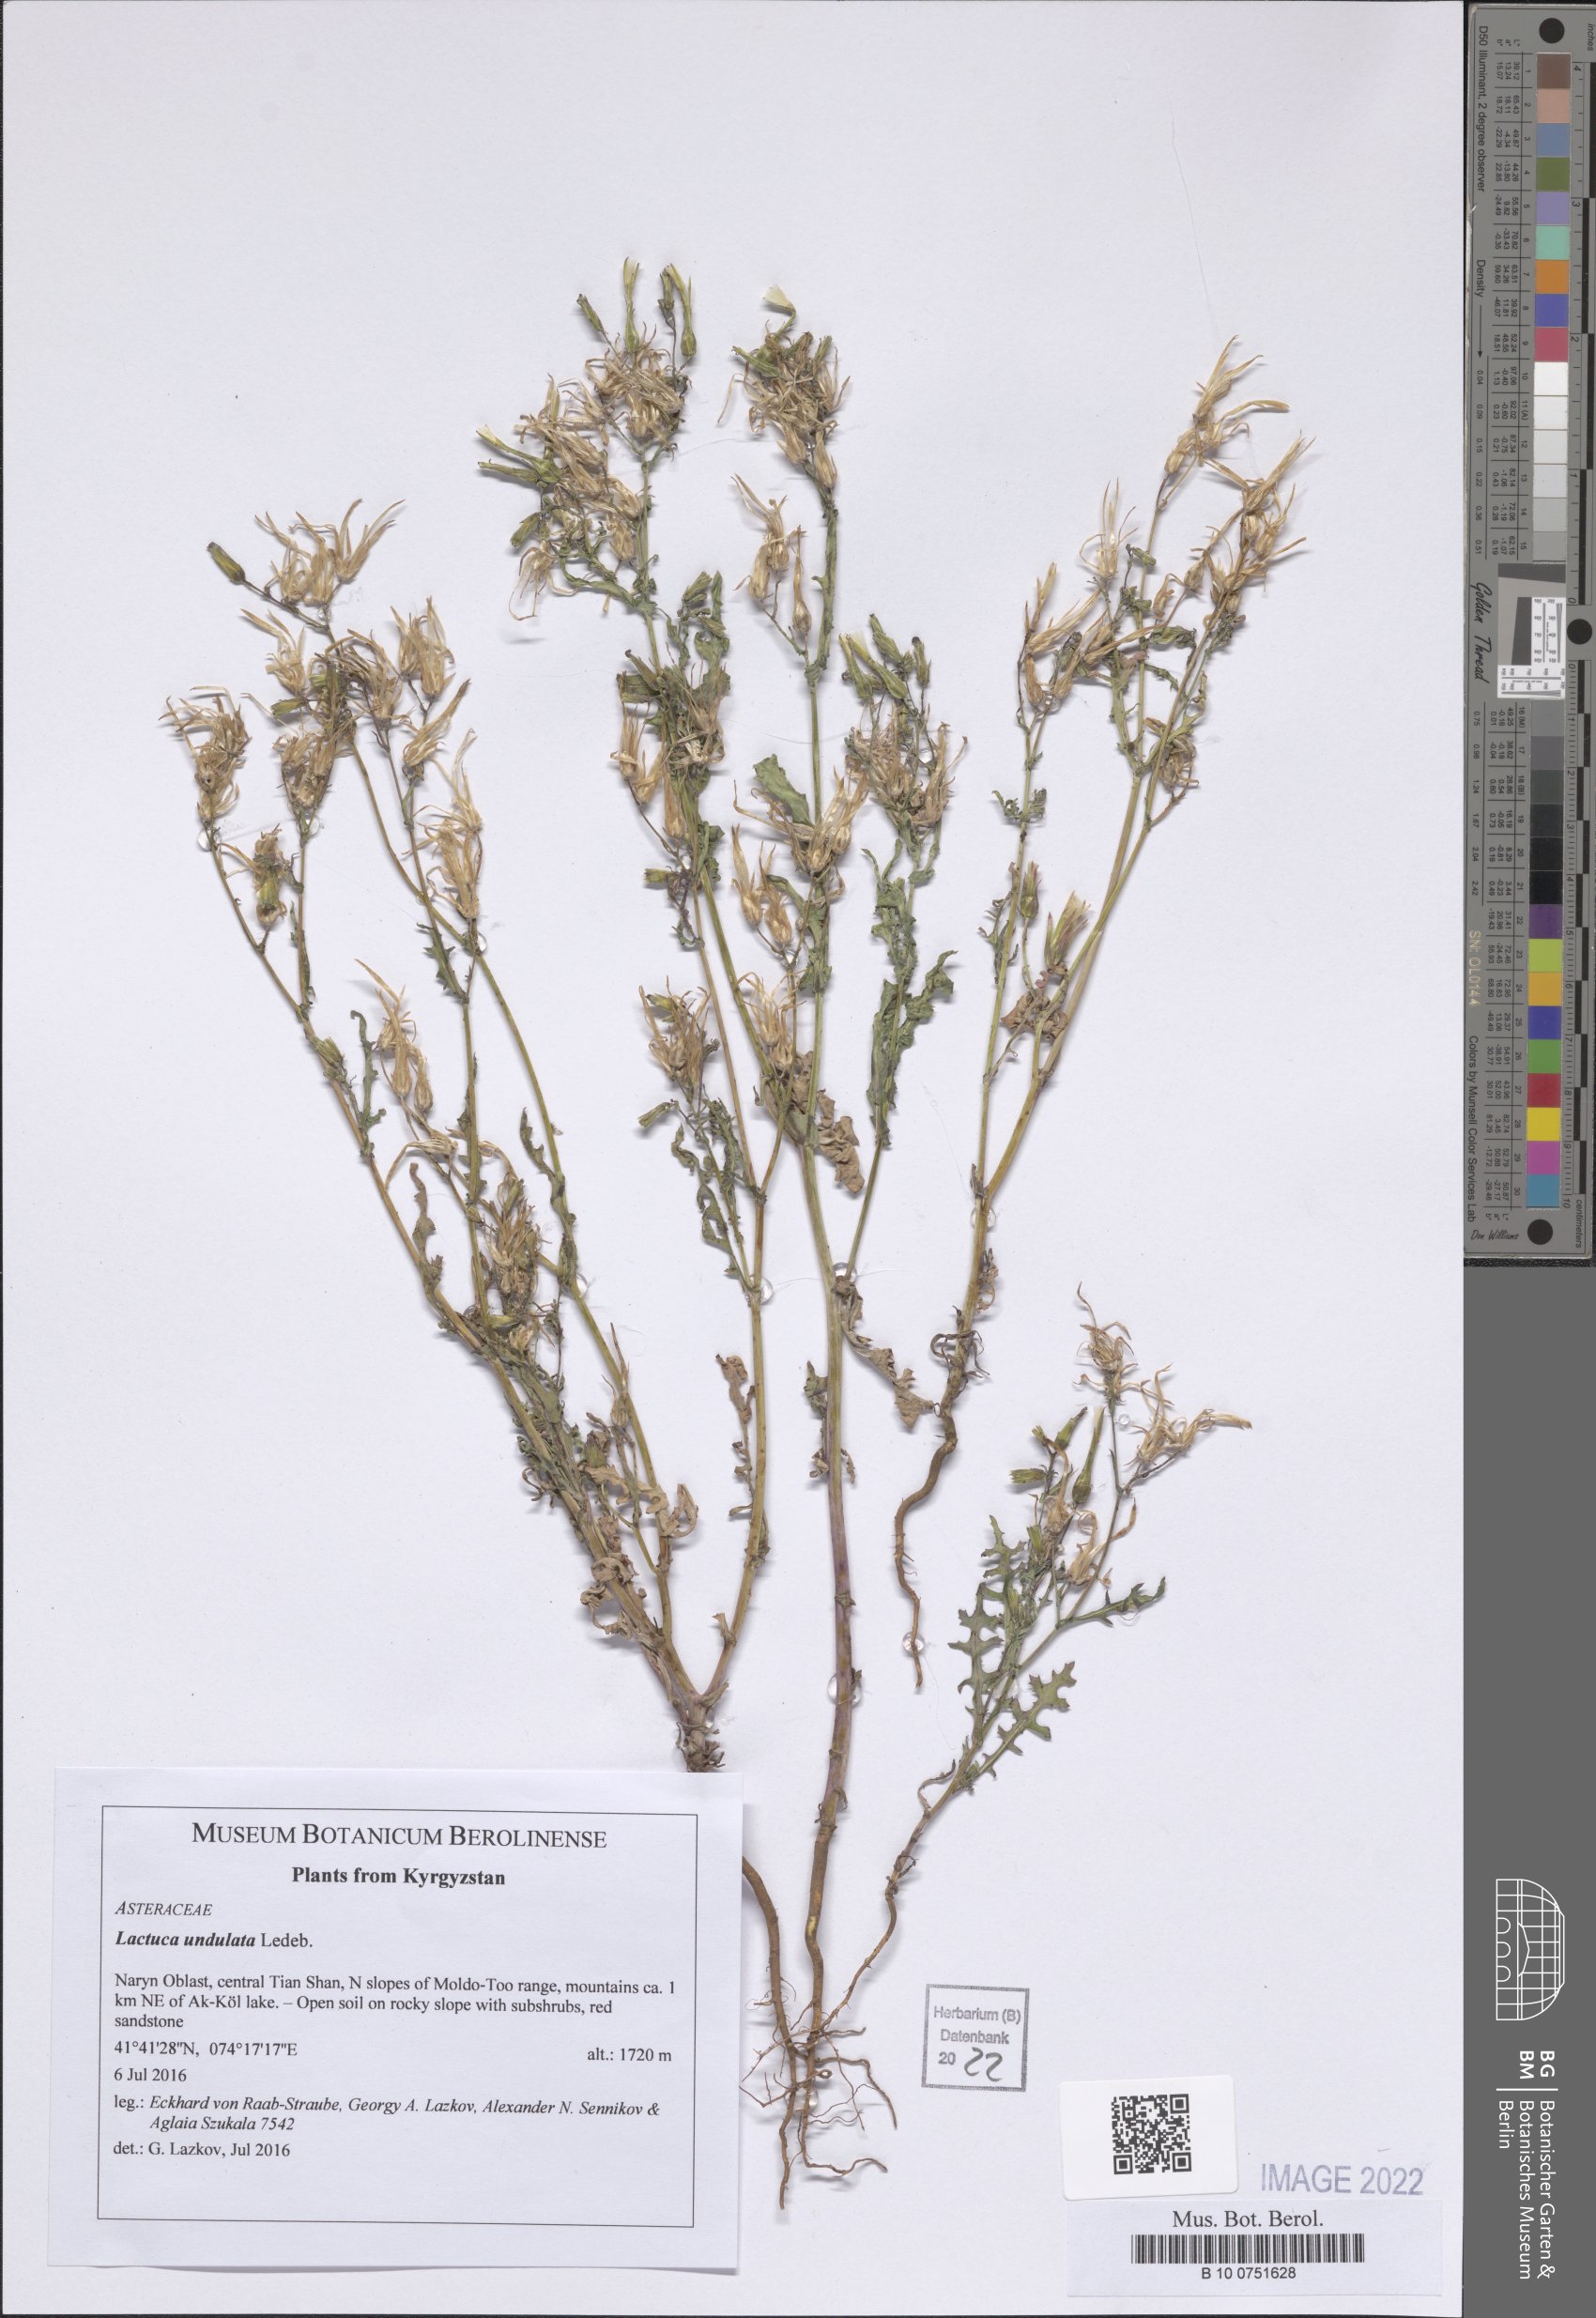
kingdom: Plantae
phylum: Tracheophyta
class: Magnoliopsida
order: Asterales
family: Asteraceae
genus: Lactuca
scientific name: Lactuca undulata
